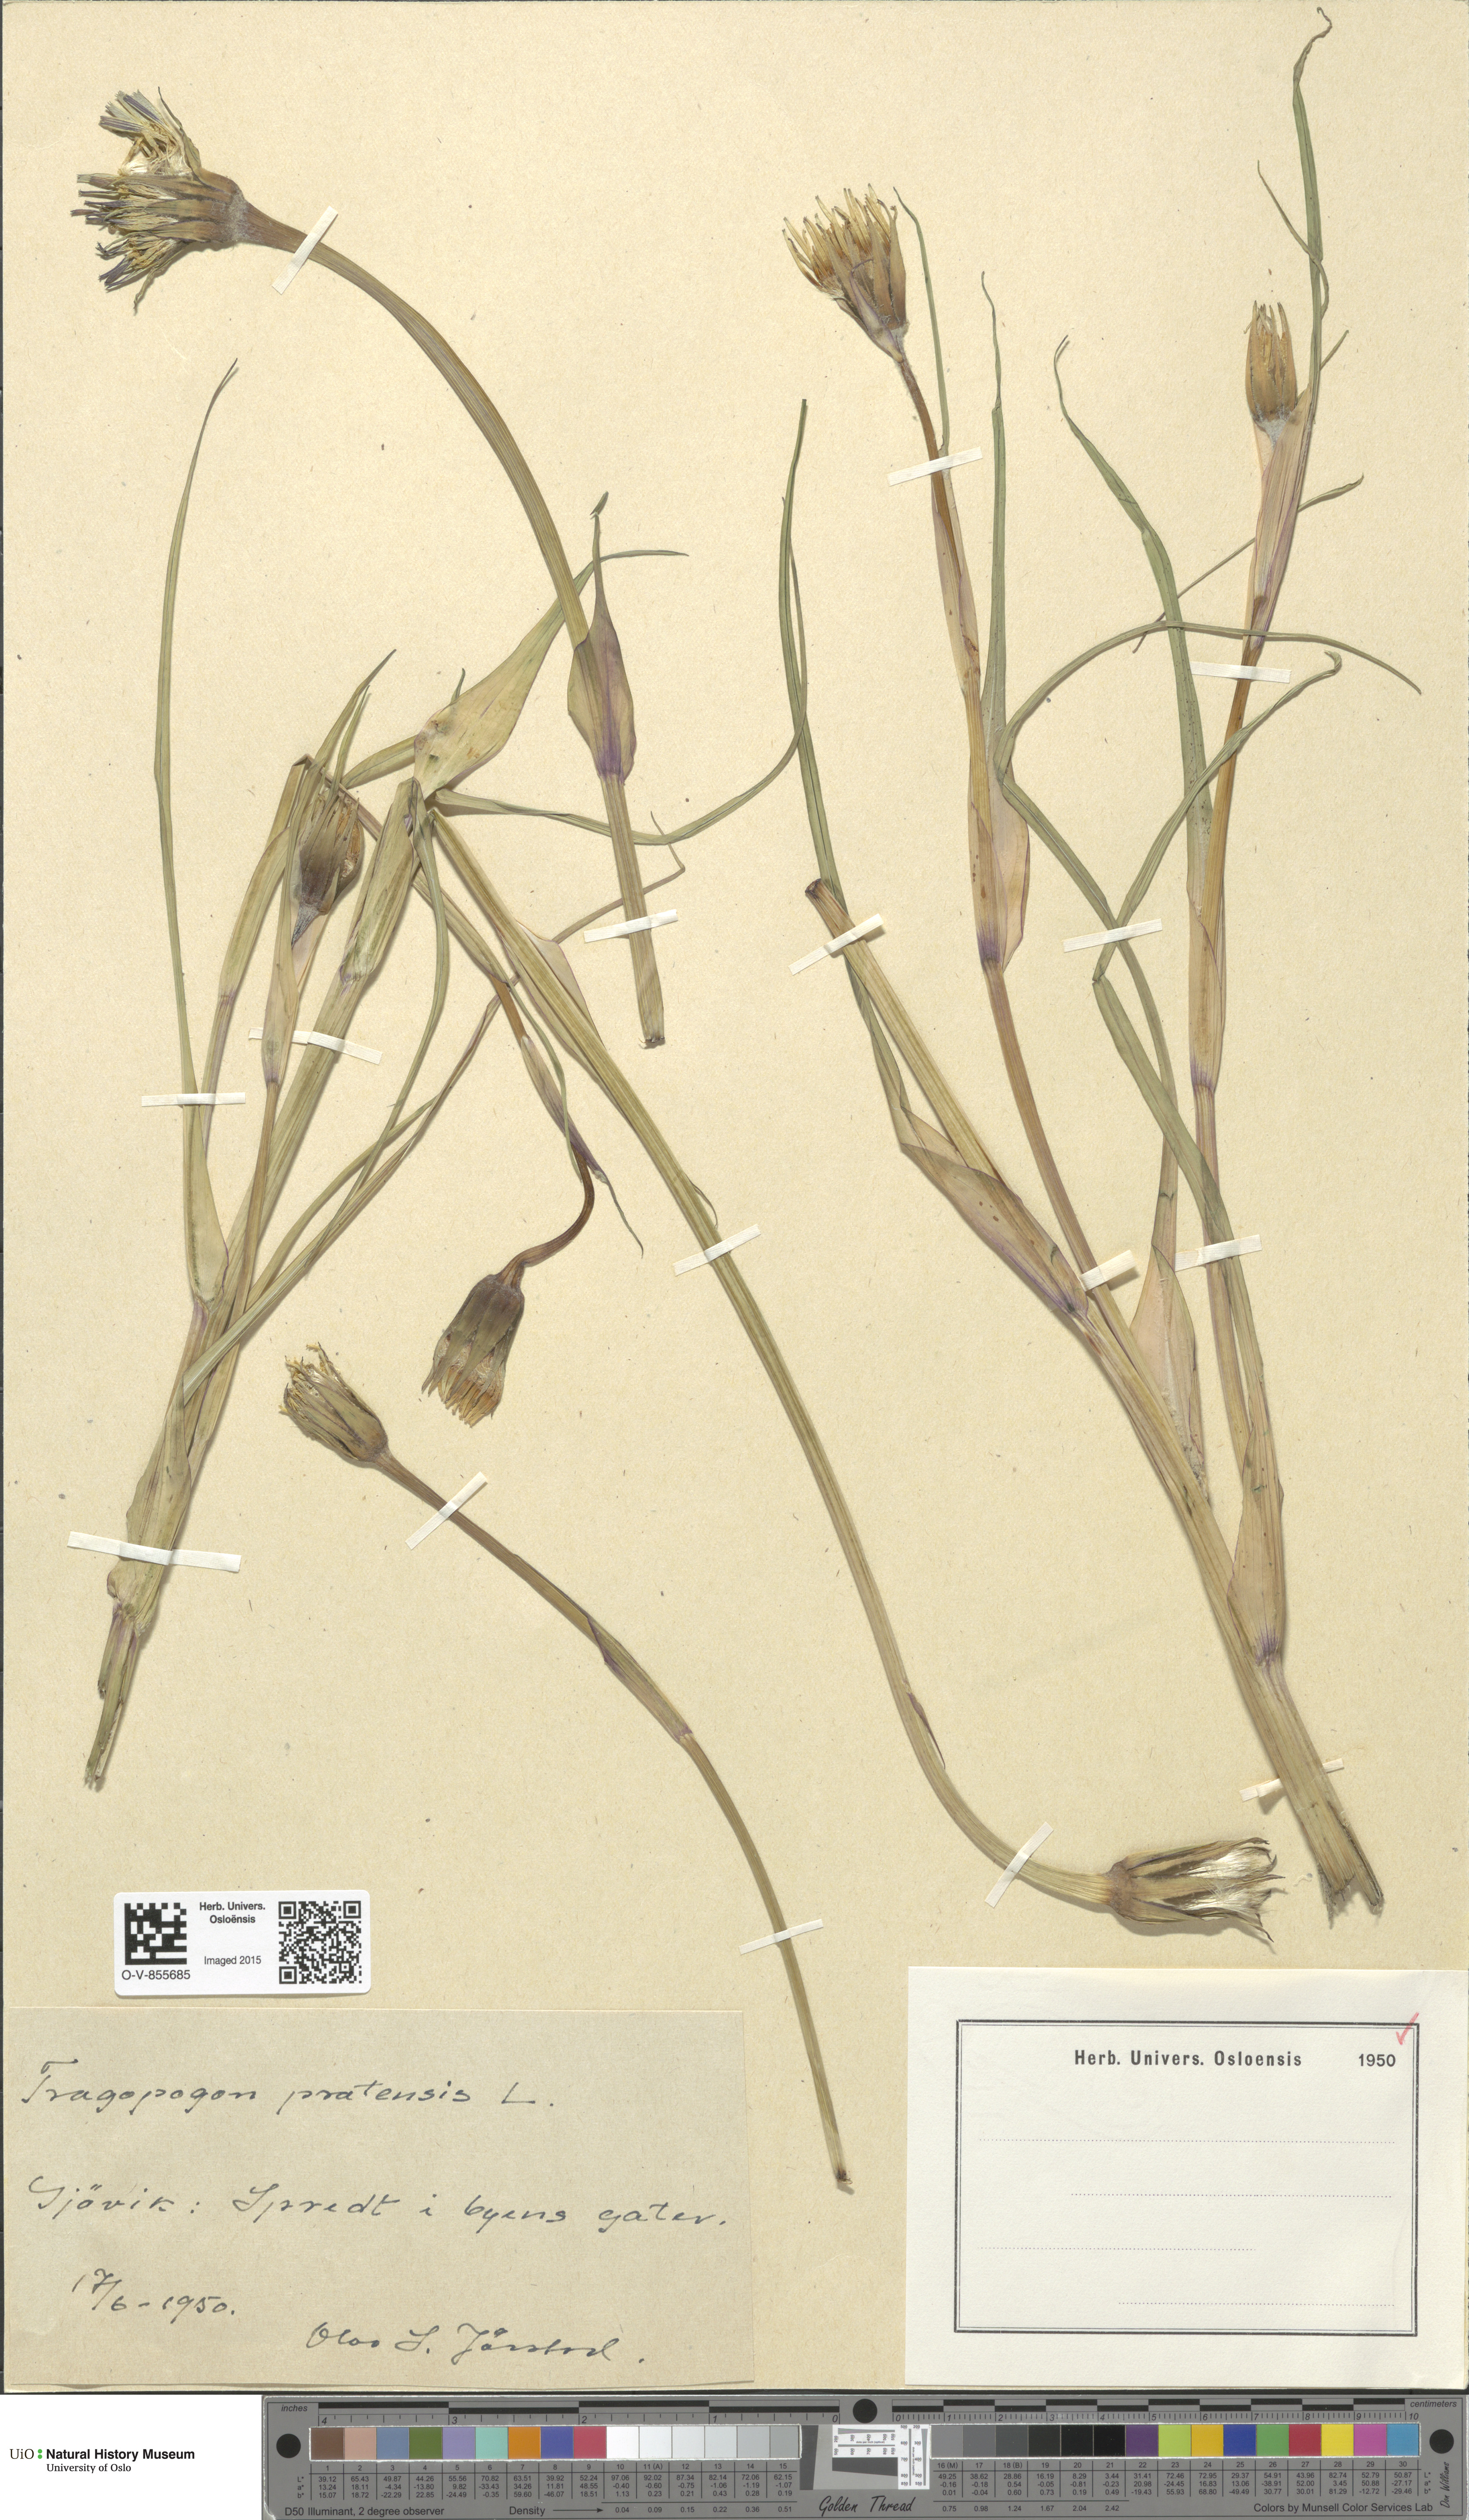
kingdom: Plantae
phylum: Tracheophyta
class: Magnoliopsida
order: Asterales
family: Asteraceae
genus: Tragopogon
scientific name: Tragopogon pratensis
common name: Goat's-beard
